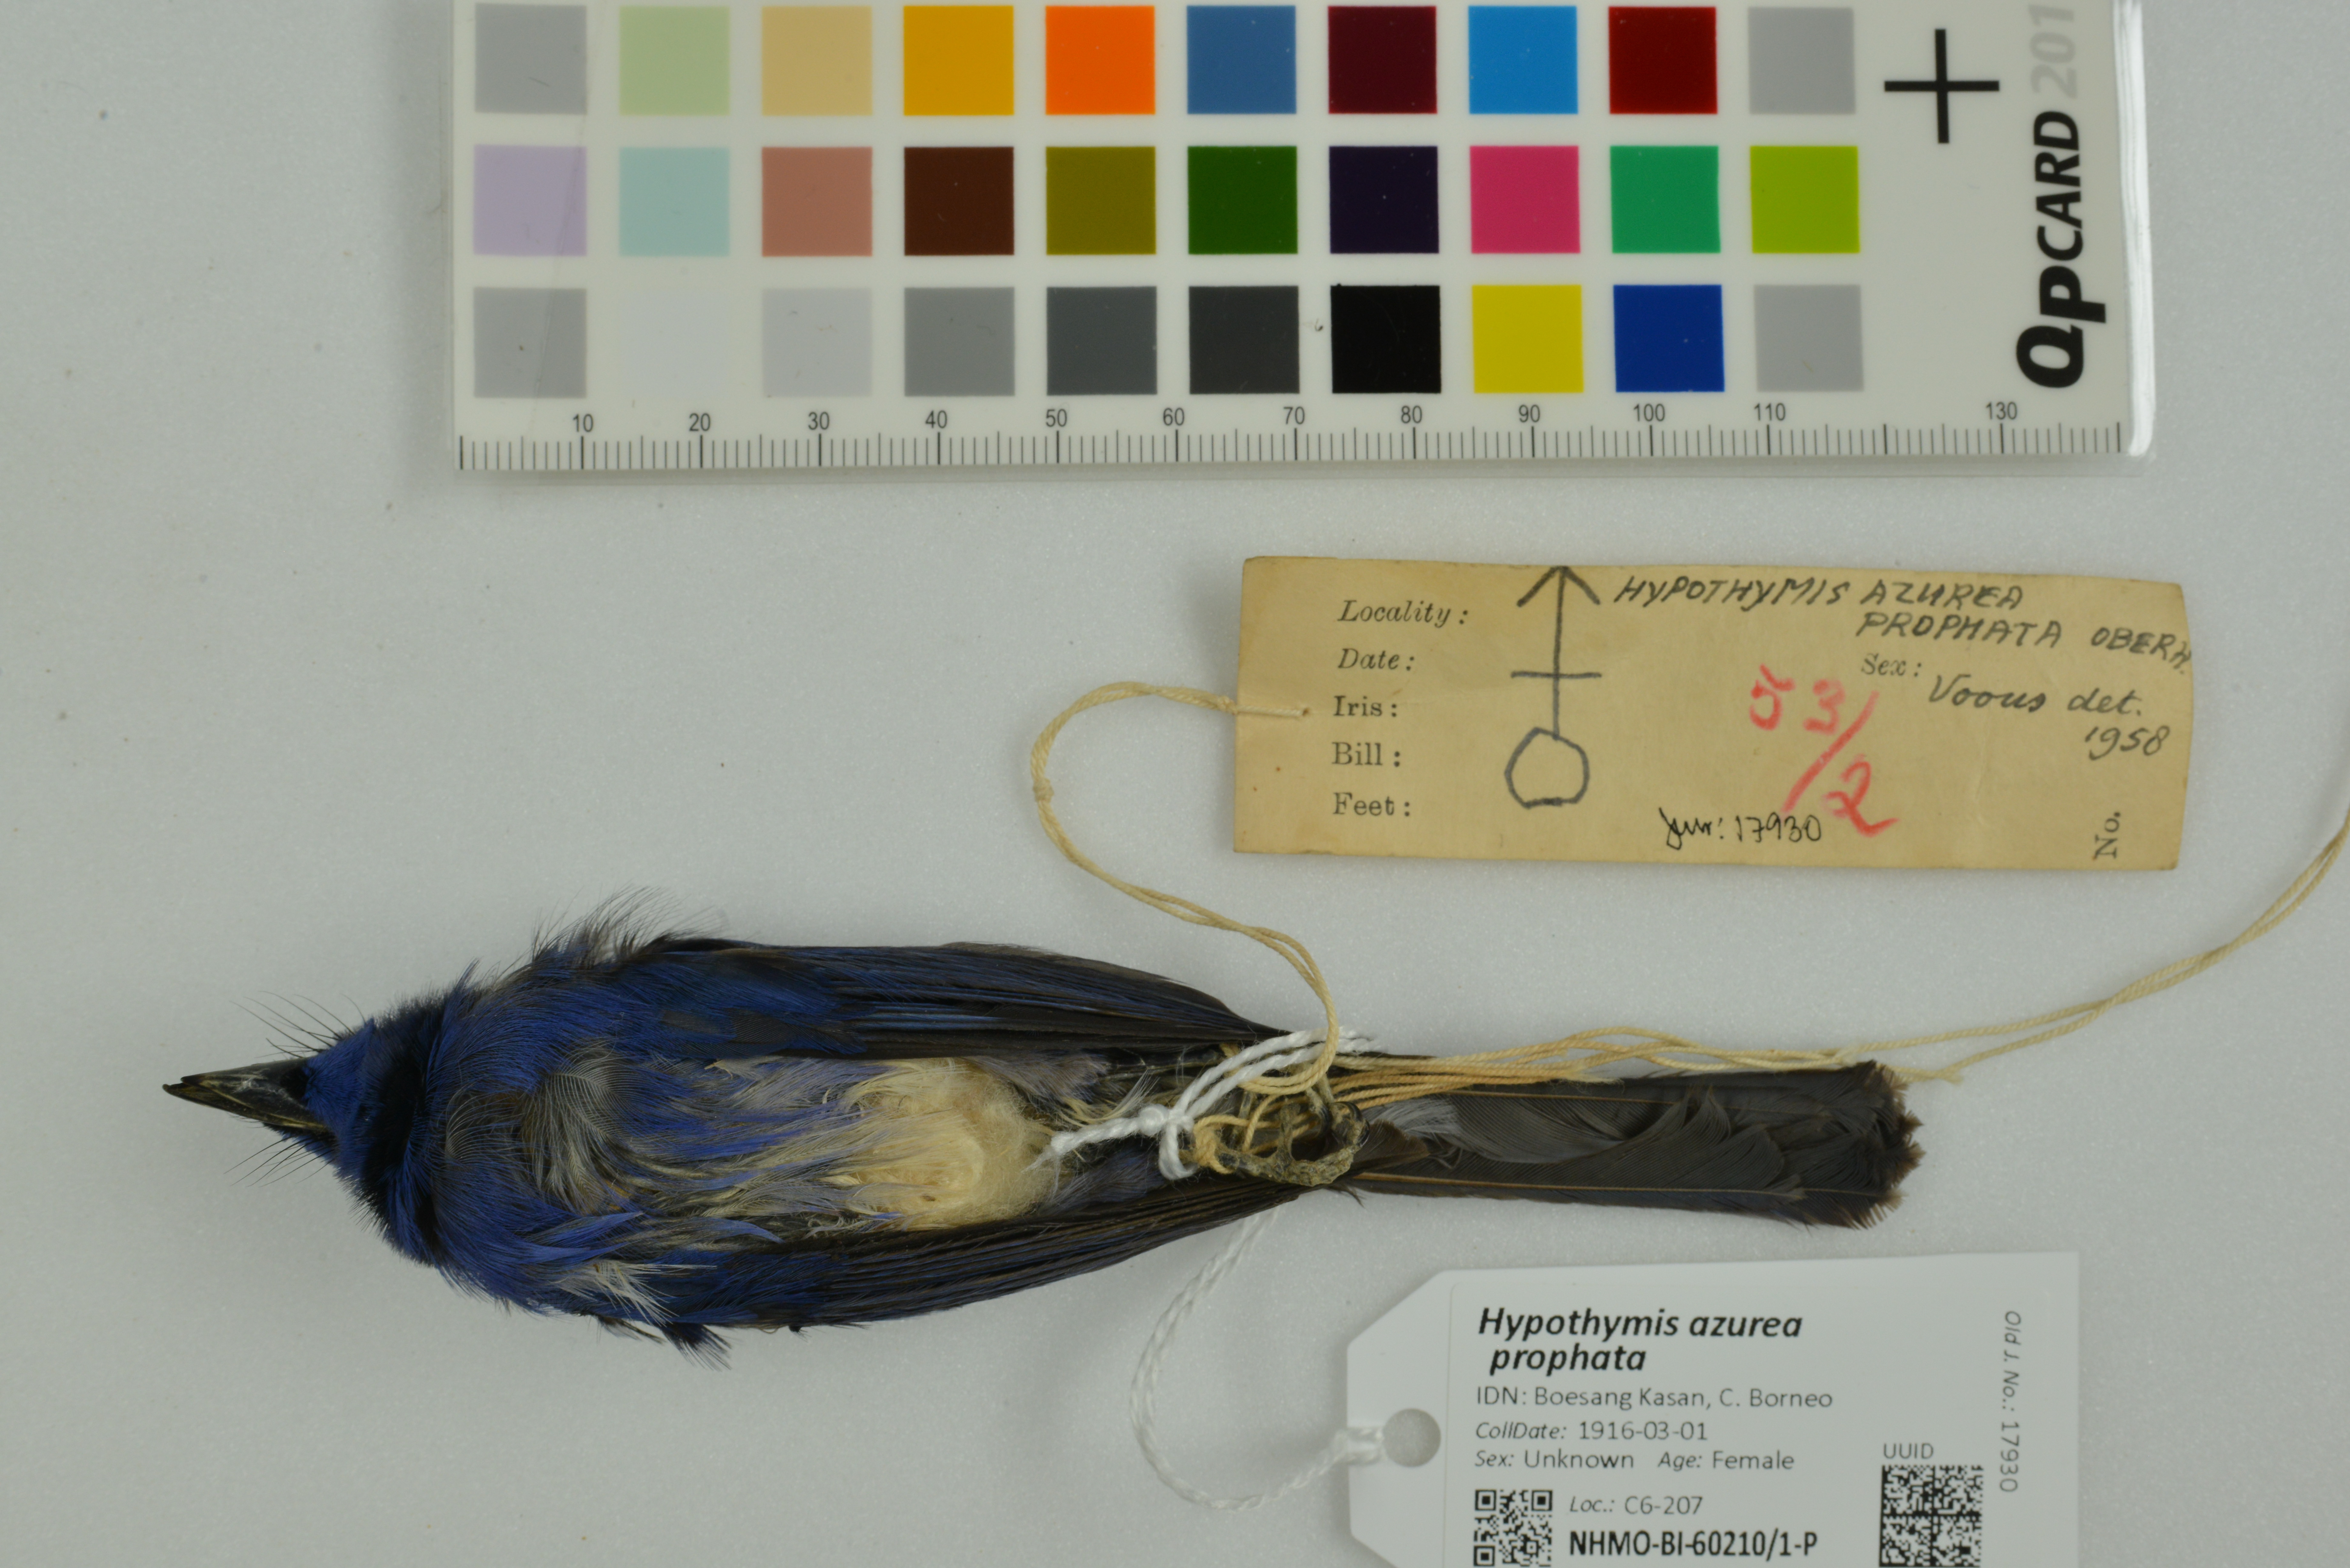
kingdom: Animalia
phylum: Chordata
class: Aves
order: Passeriformes
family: Monarchidae
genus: Hypothymis
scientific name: Hypothymis azurea
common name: Black-naped monarch
